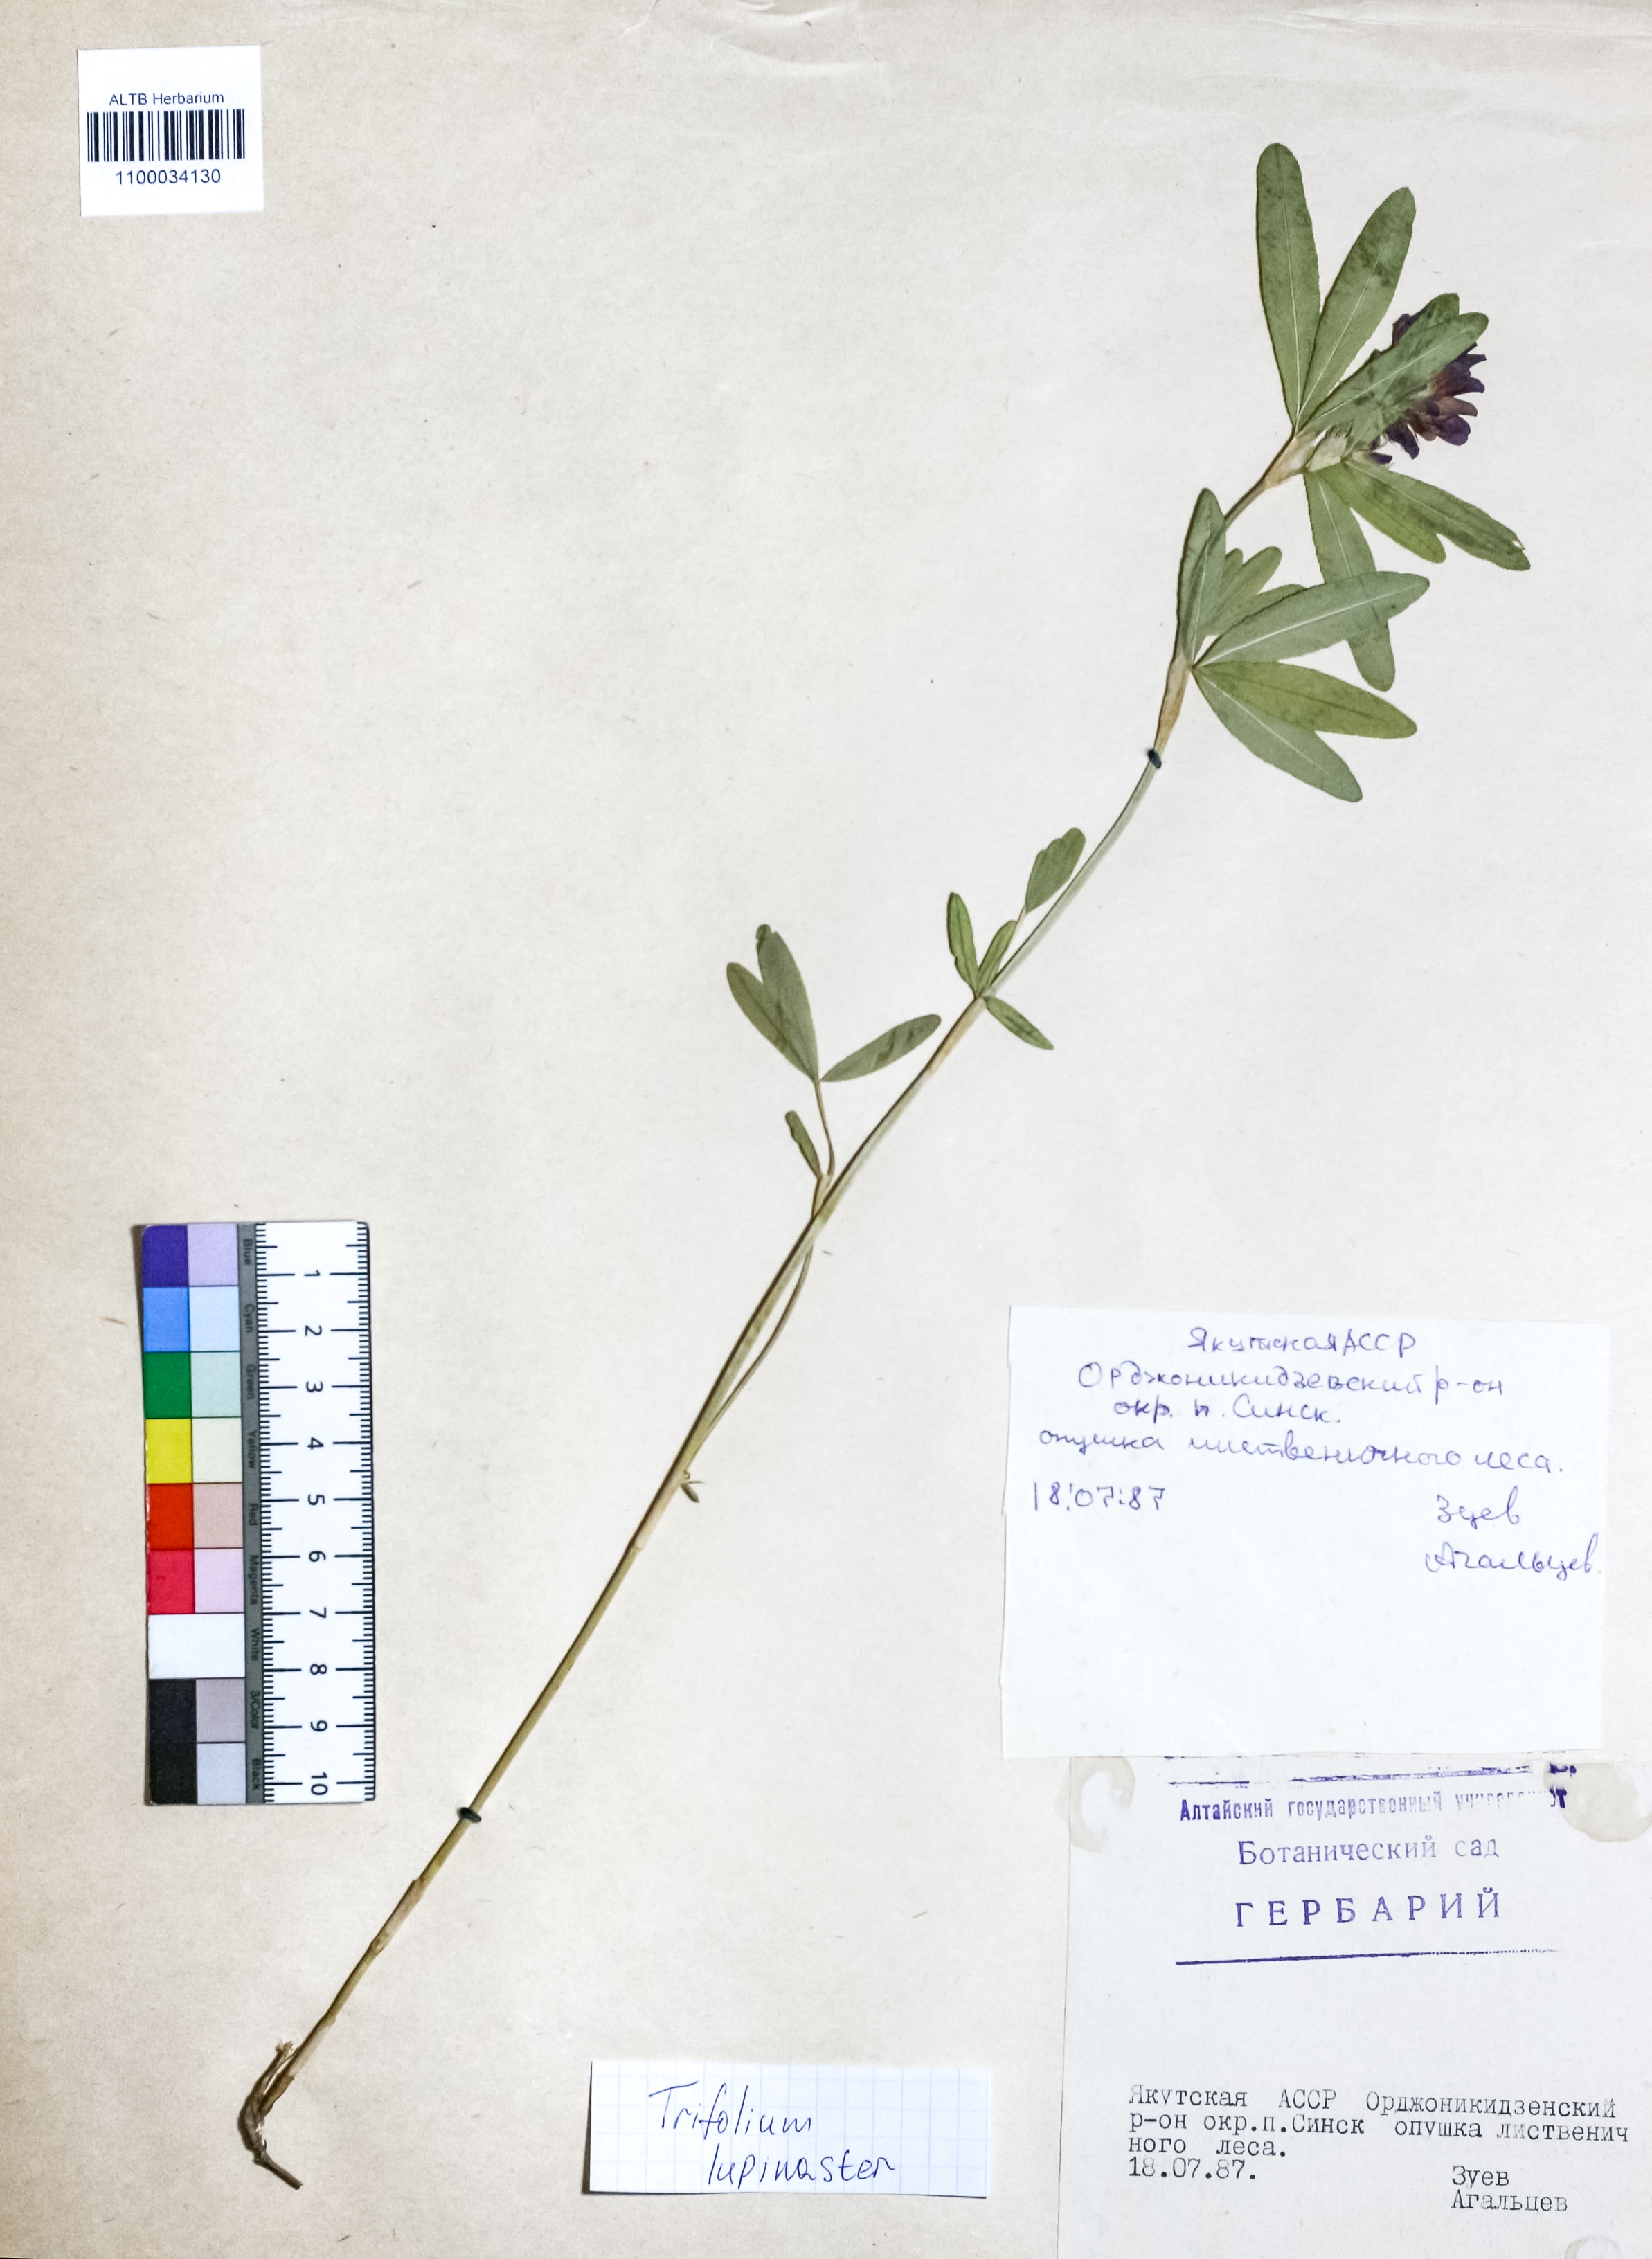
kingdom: Plantae
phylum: Tracheophyta
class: Magnoliopsida
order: Fabales
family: Fabaceae
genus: Trifolium
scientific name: Trifolium lupinaster
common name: Lupine clover
